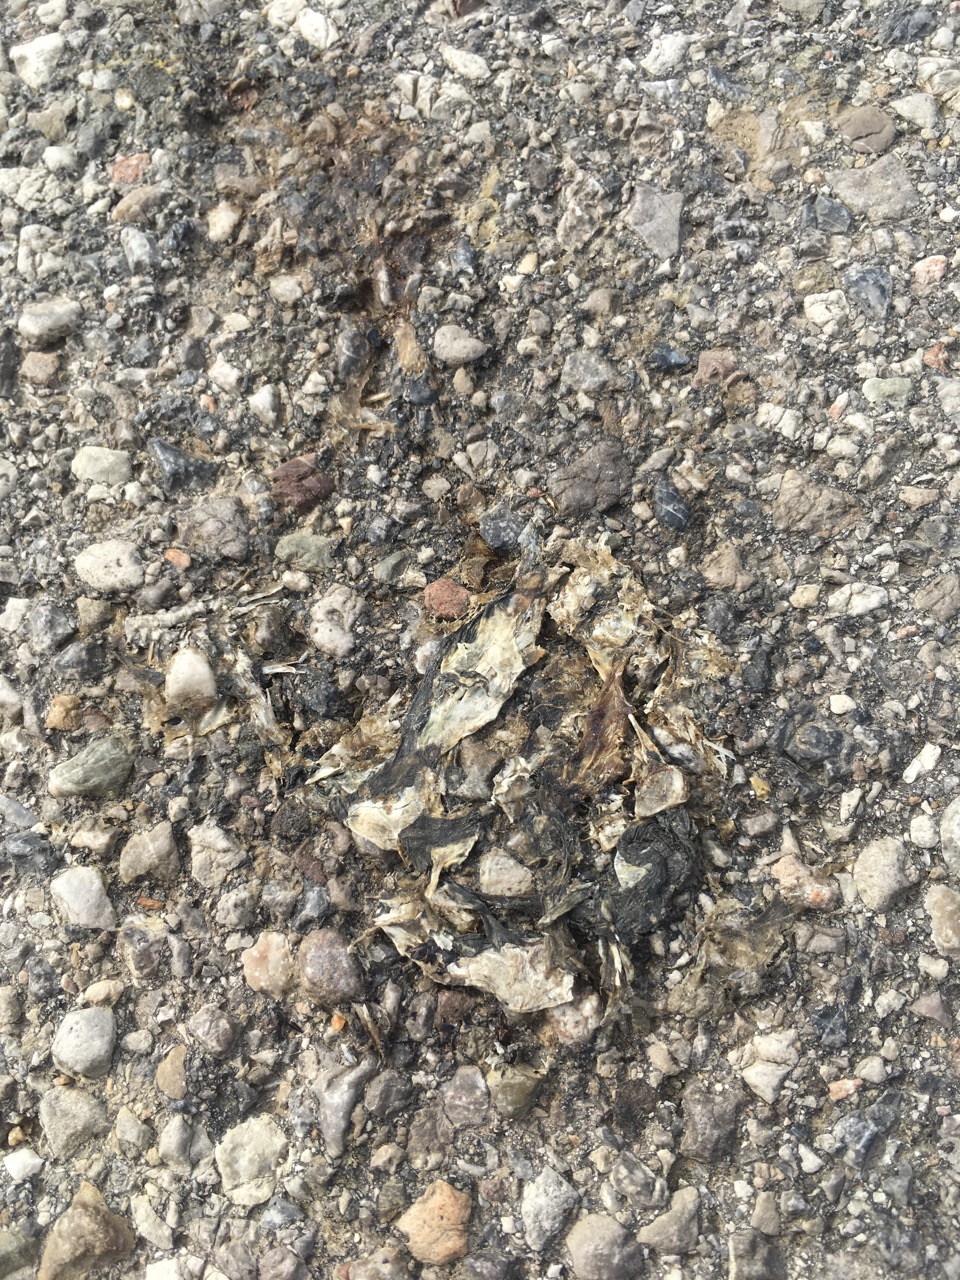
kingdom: Animalia
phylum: Chordata
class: Amphibia
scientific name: Amphibia
